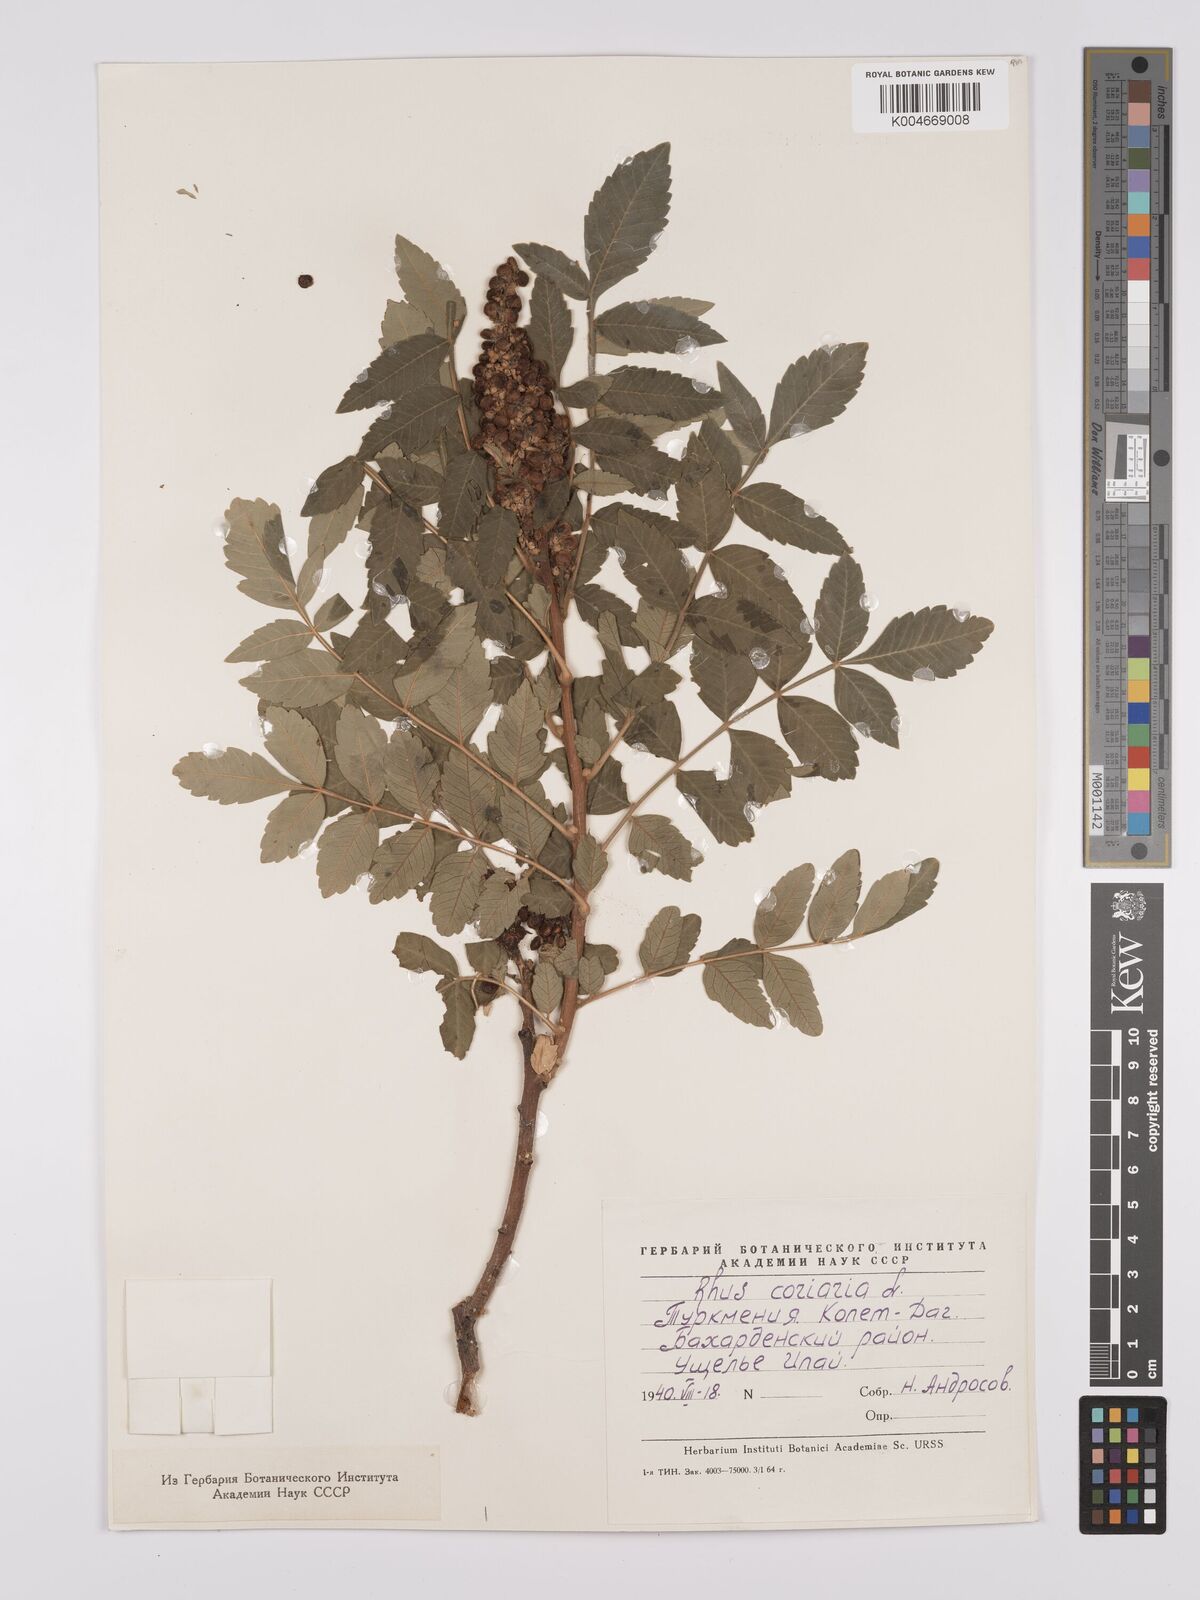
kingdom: Plantae
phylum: Tracheophyta
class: Magnoliopsida
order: Sapindales
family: Anacardiaceae
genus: Rhus
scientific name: Rhus coriaria
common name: Tanner's sumach
